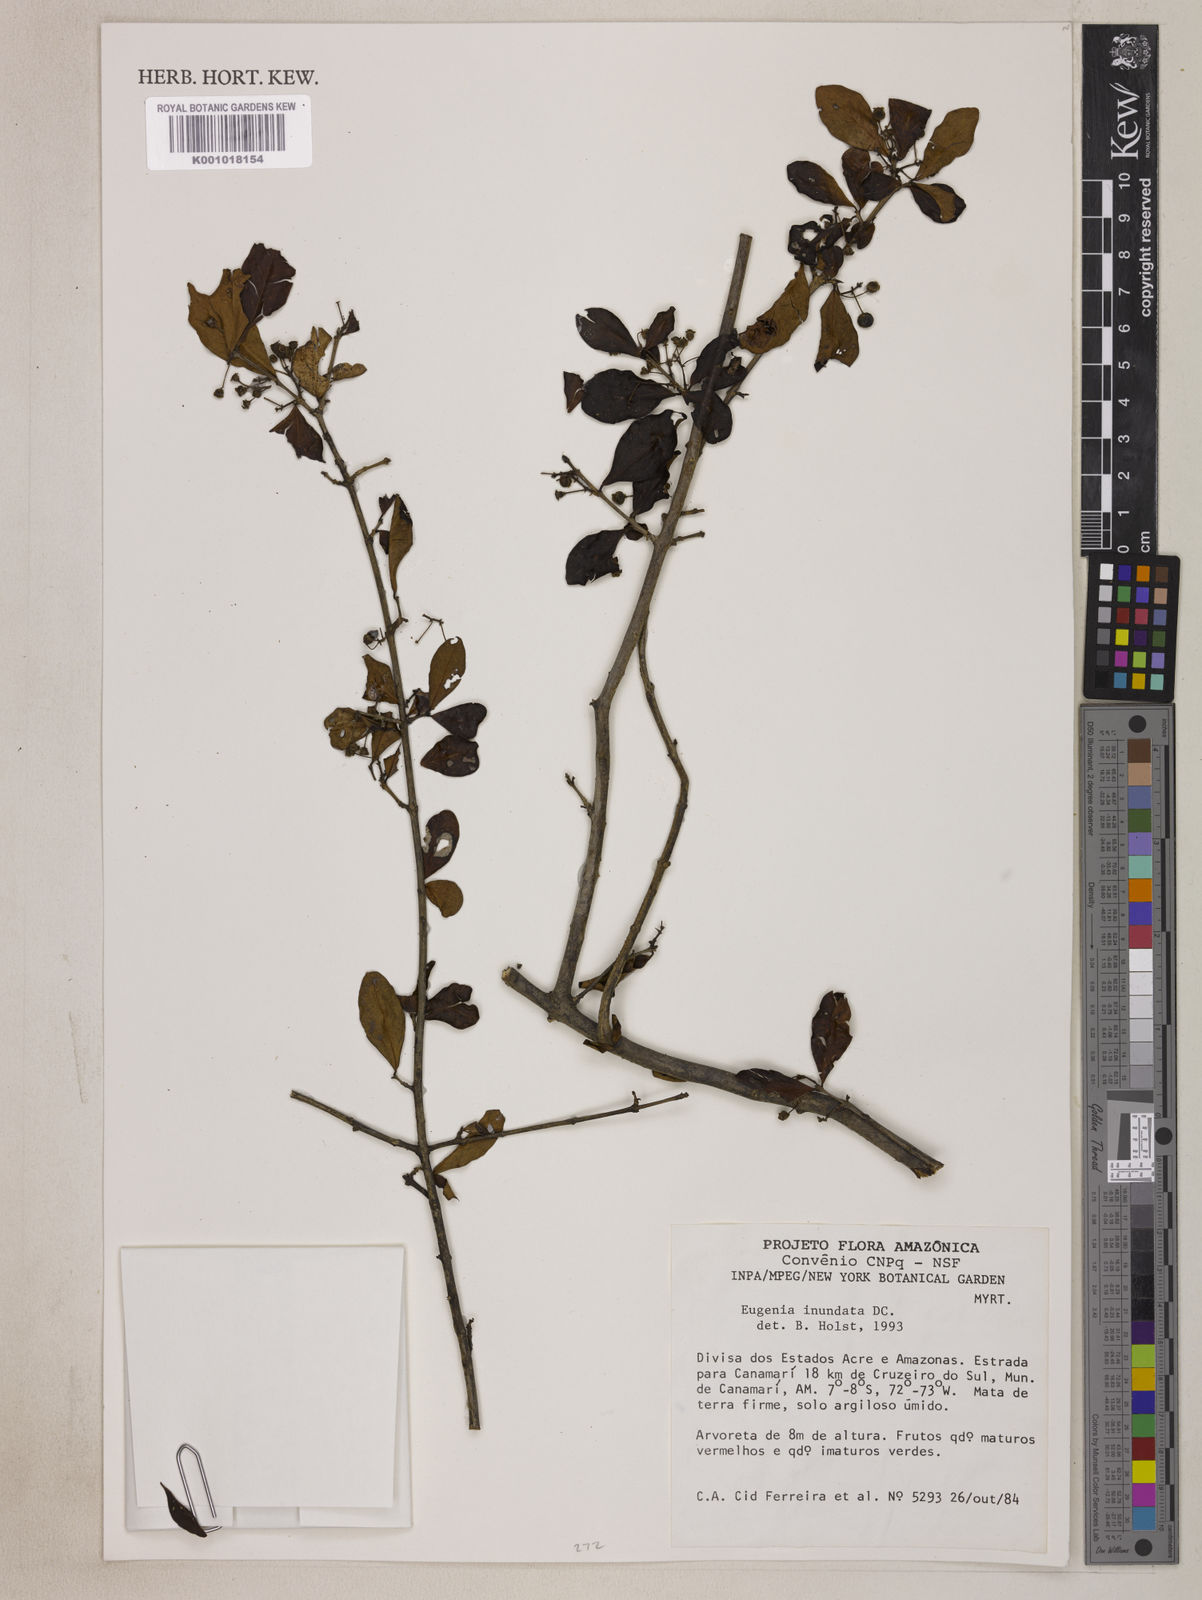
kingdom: Plantae
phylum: Tracheophyta
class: Magnoliopsida
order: Myrtales
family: Myrtaceae
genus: Eugenia
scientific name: Eugenia inundata
